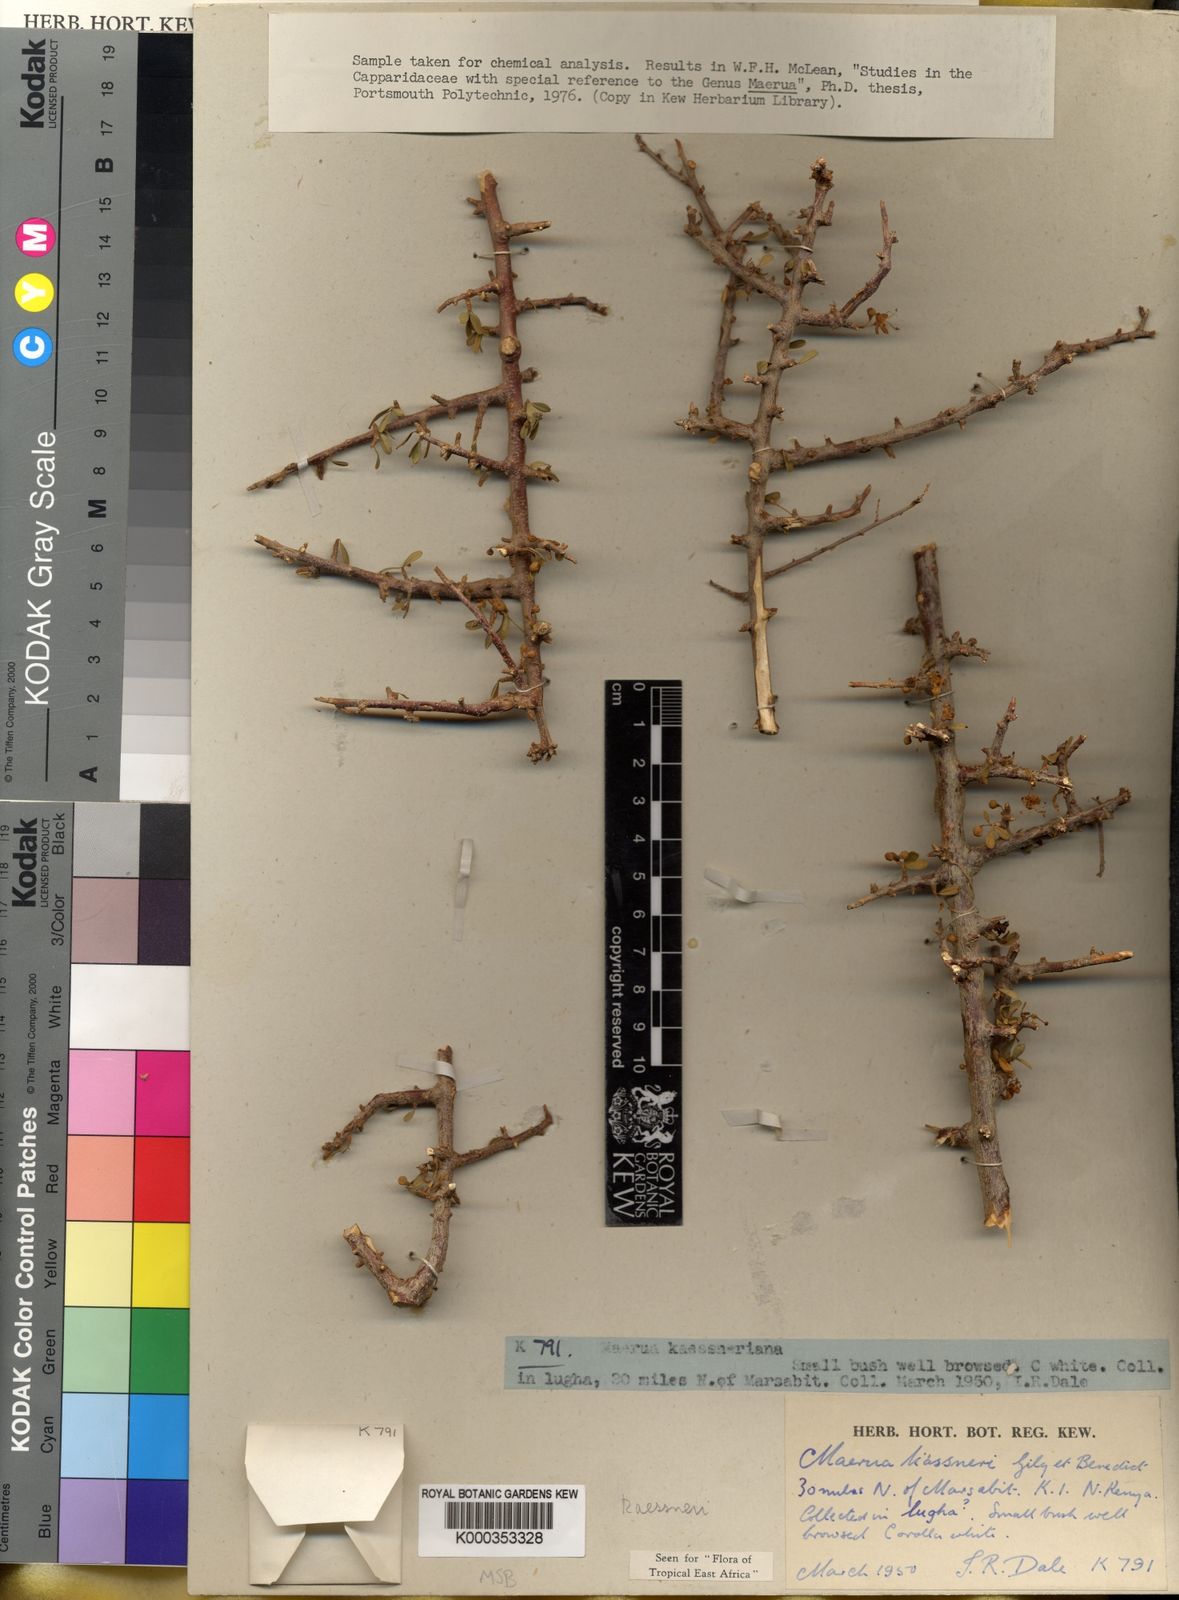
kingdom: Plantae
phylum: Tracheophyta
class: Magnoliopsida
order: Brassicales
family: Capparaceae
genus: Maerua
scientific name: Maerua kaessneri
